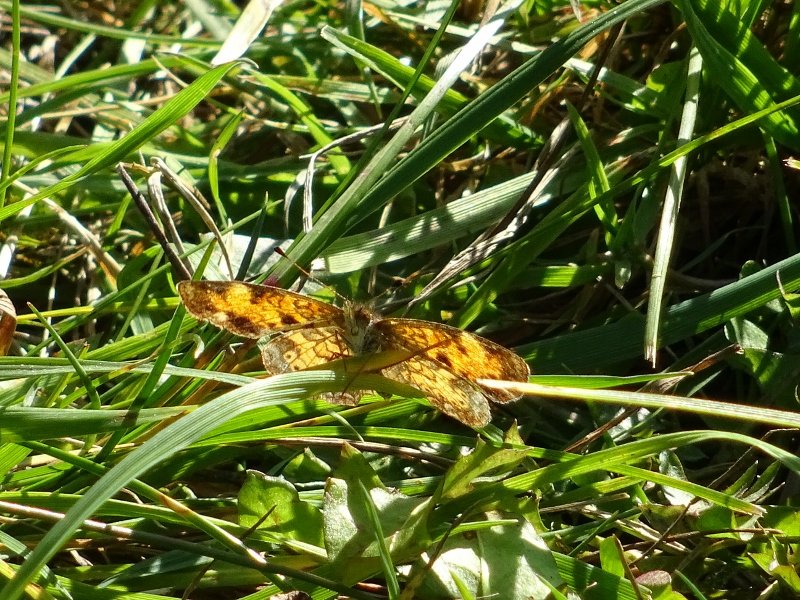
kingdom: Animalia
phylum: Arthropoda
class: Insecta
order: Lepidoptera
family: Nymphalidae
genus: Phyciodes
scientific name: Phyciodes tharos
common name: Pearl Crescent
